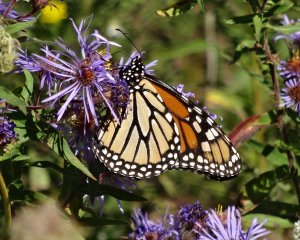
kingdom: Animalia
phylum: Arthropoda
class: Insecta
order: Lepidoptera
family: Nymphalidae
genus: Danaus
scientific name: Danaus plexippus
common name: Monarch
